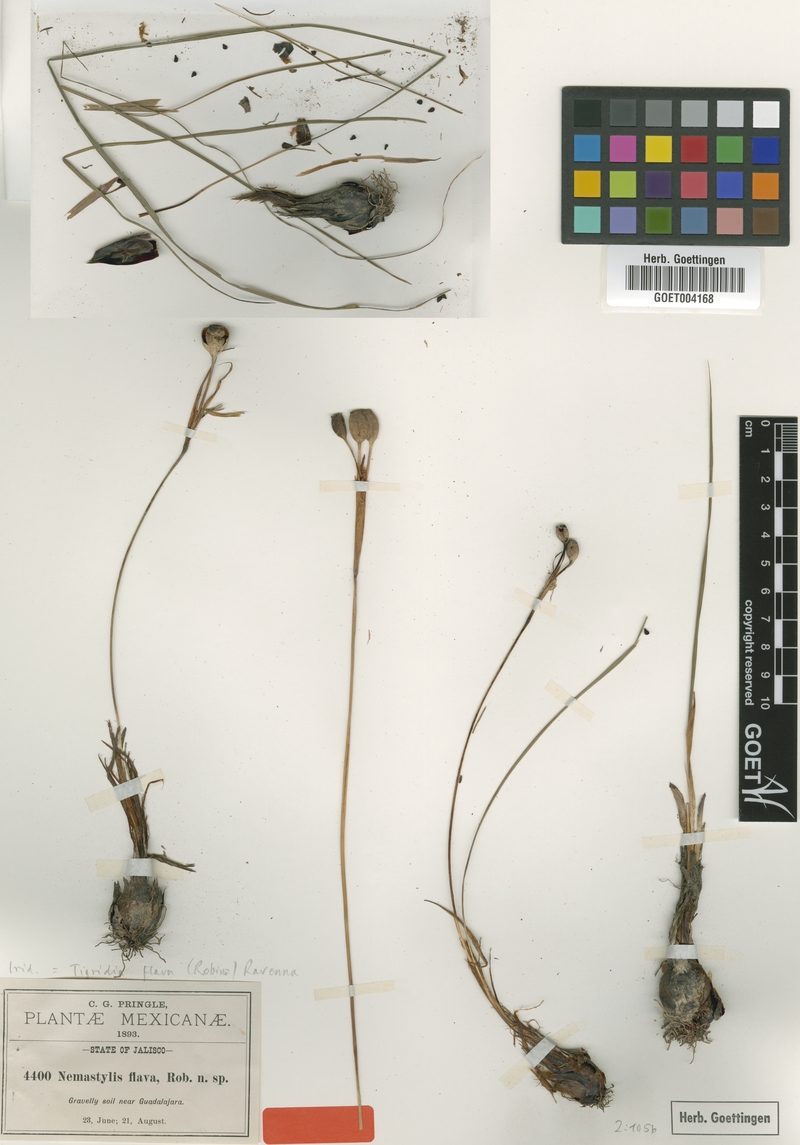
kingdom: Plantae
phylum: Tracheophyta
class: Liliopsida
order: Asparagales
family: Iridaceae
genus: Tigridia
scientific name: Tigridia dugesii
